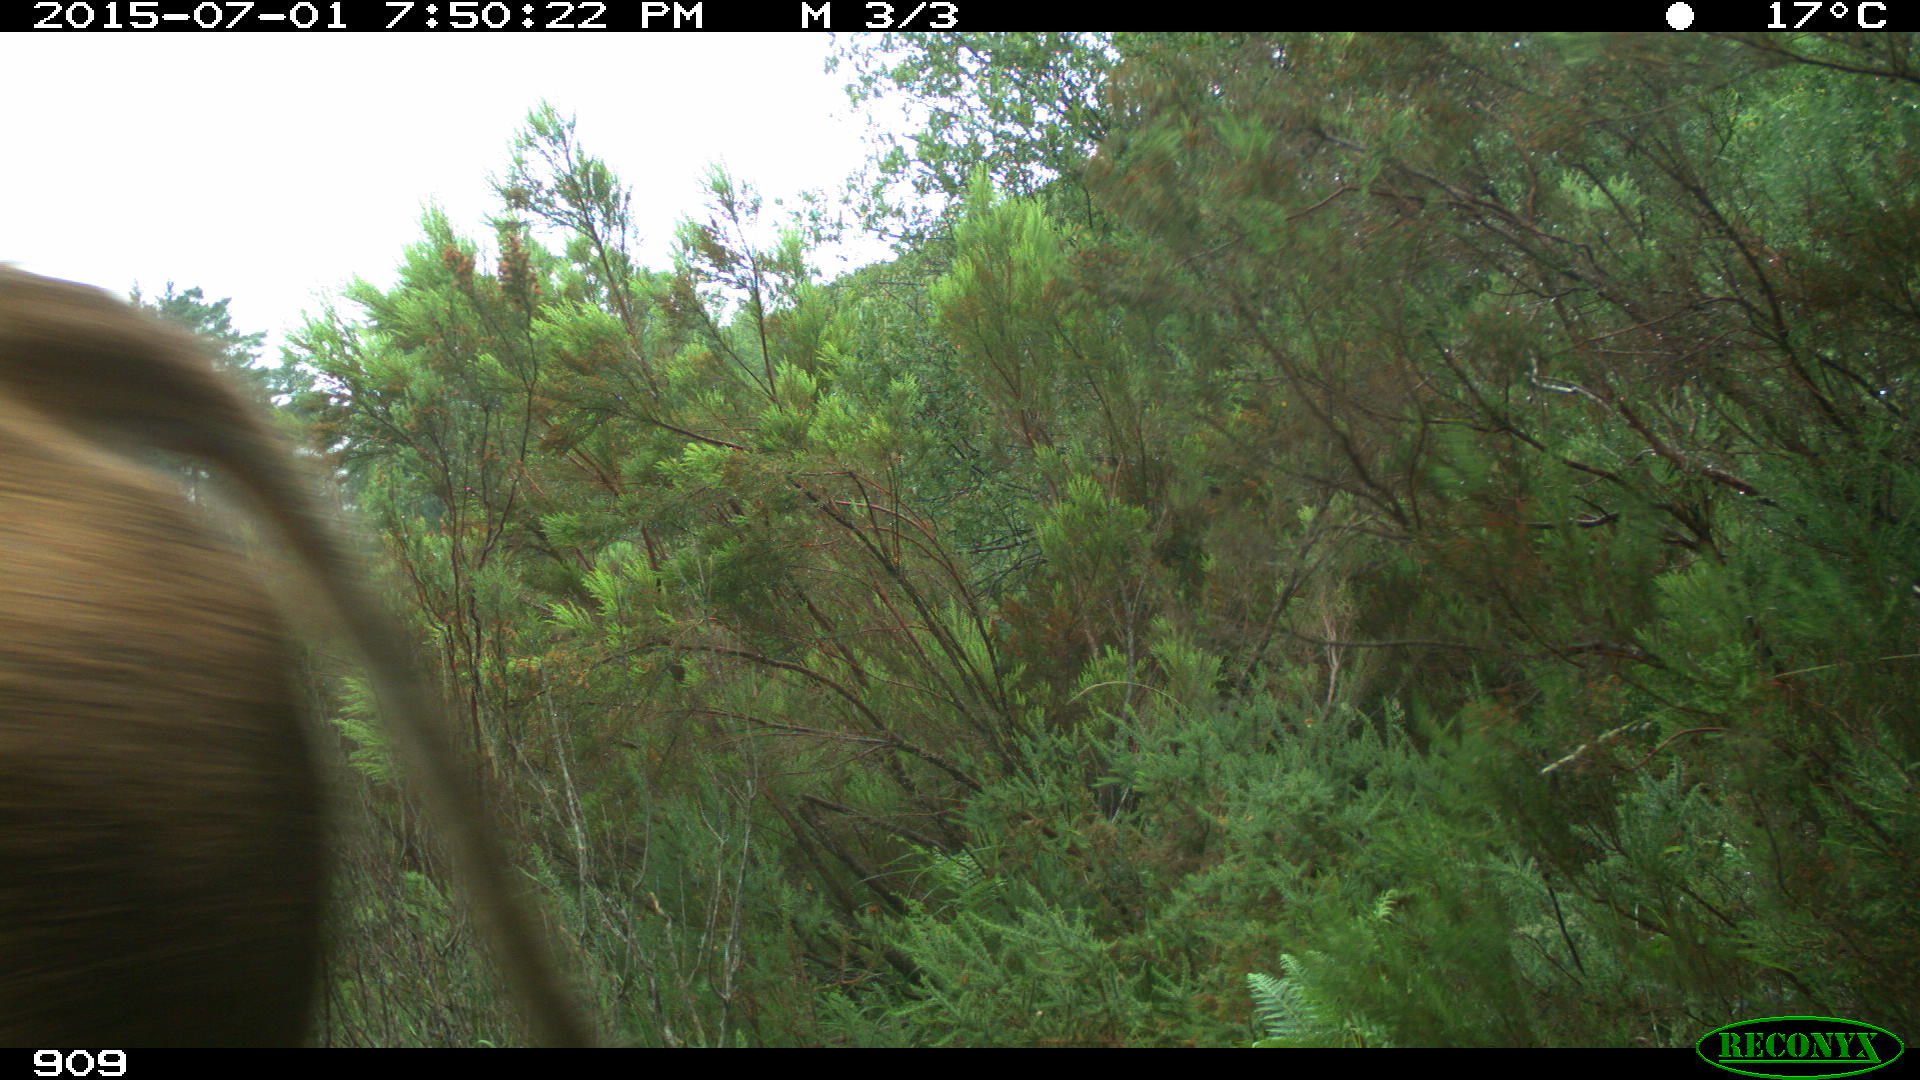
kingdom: Animalia
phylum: Chordata
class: Mammalia
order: Artiodactyla
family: Bovidae
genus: Bos
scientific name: Bos taurus
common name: Domesticated cattle
